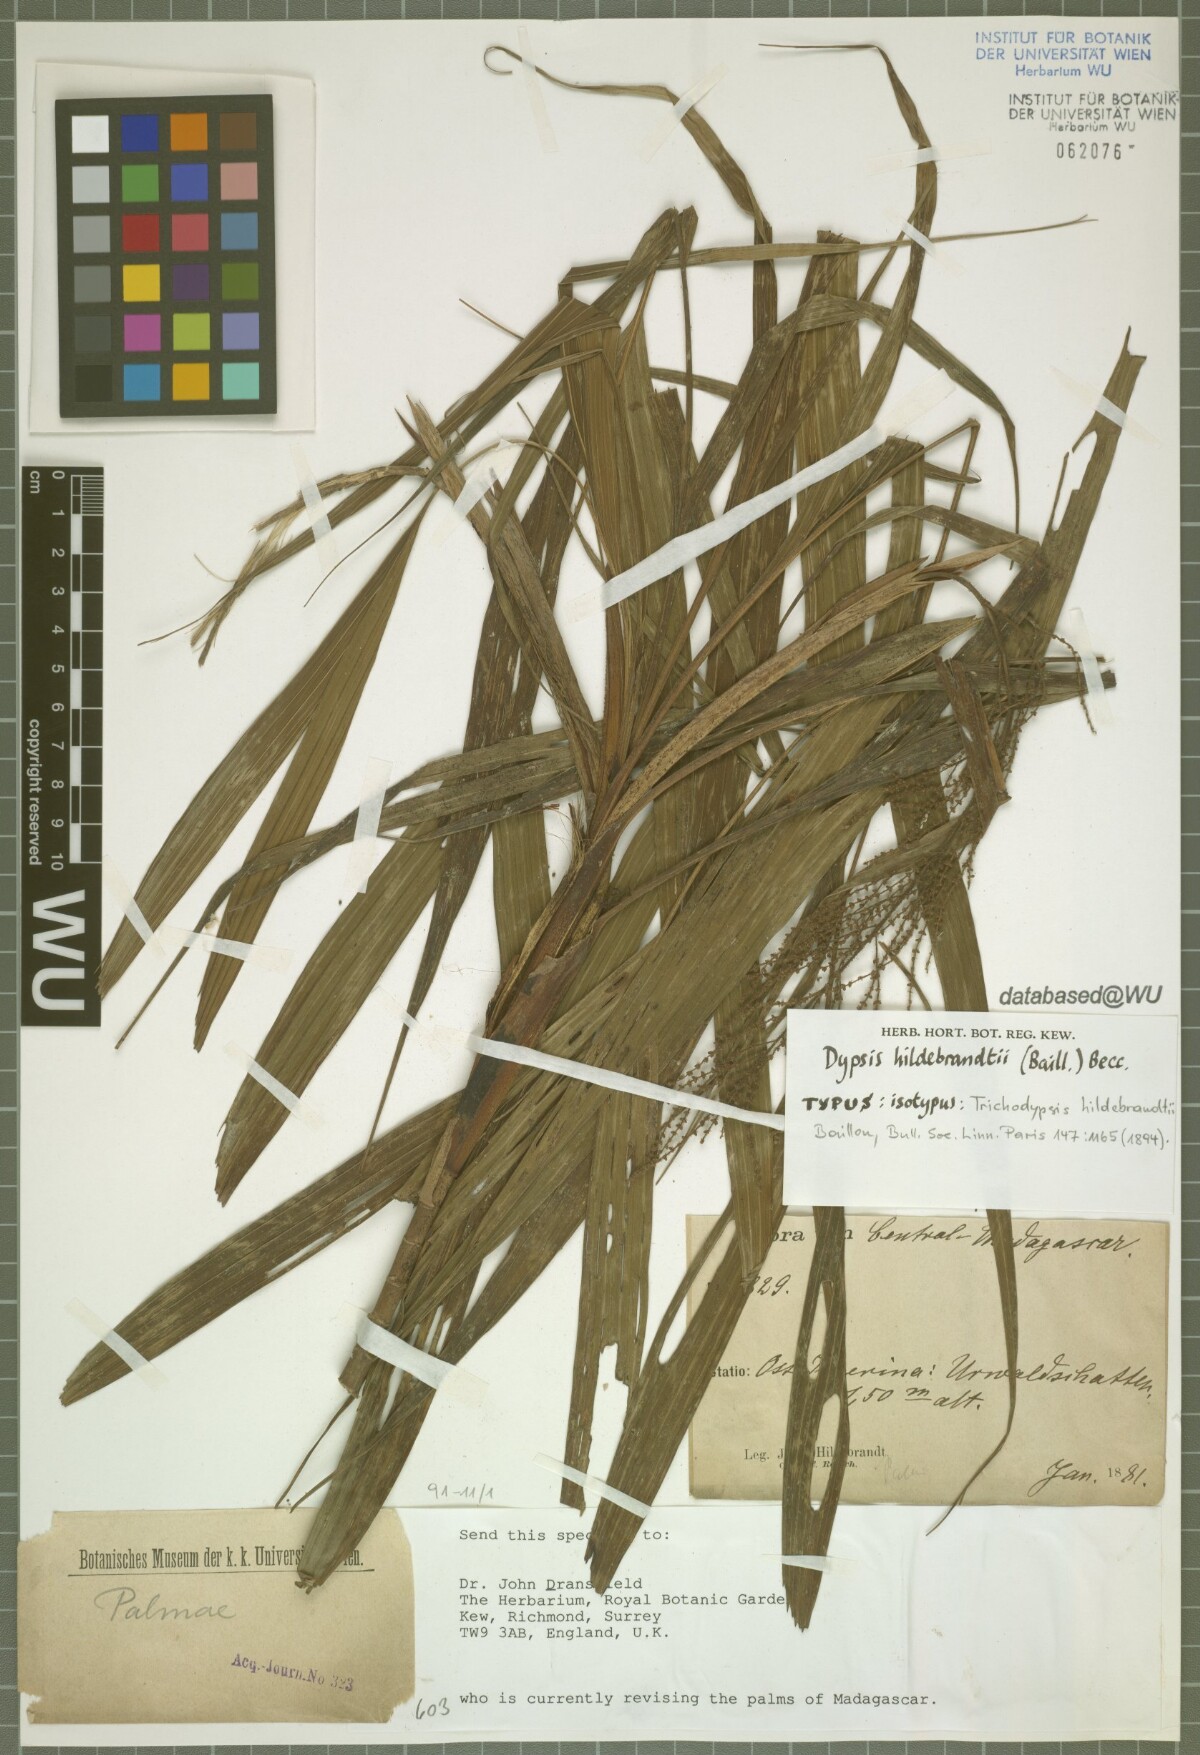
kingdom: Plantae
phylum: Tracheophyta
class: Liliopsida
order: Arecales
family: Arecaceae
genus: Dypsis
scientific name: Dypsis hildebrandtii
